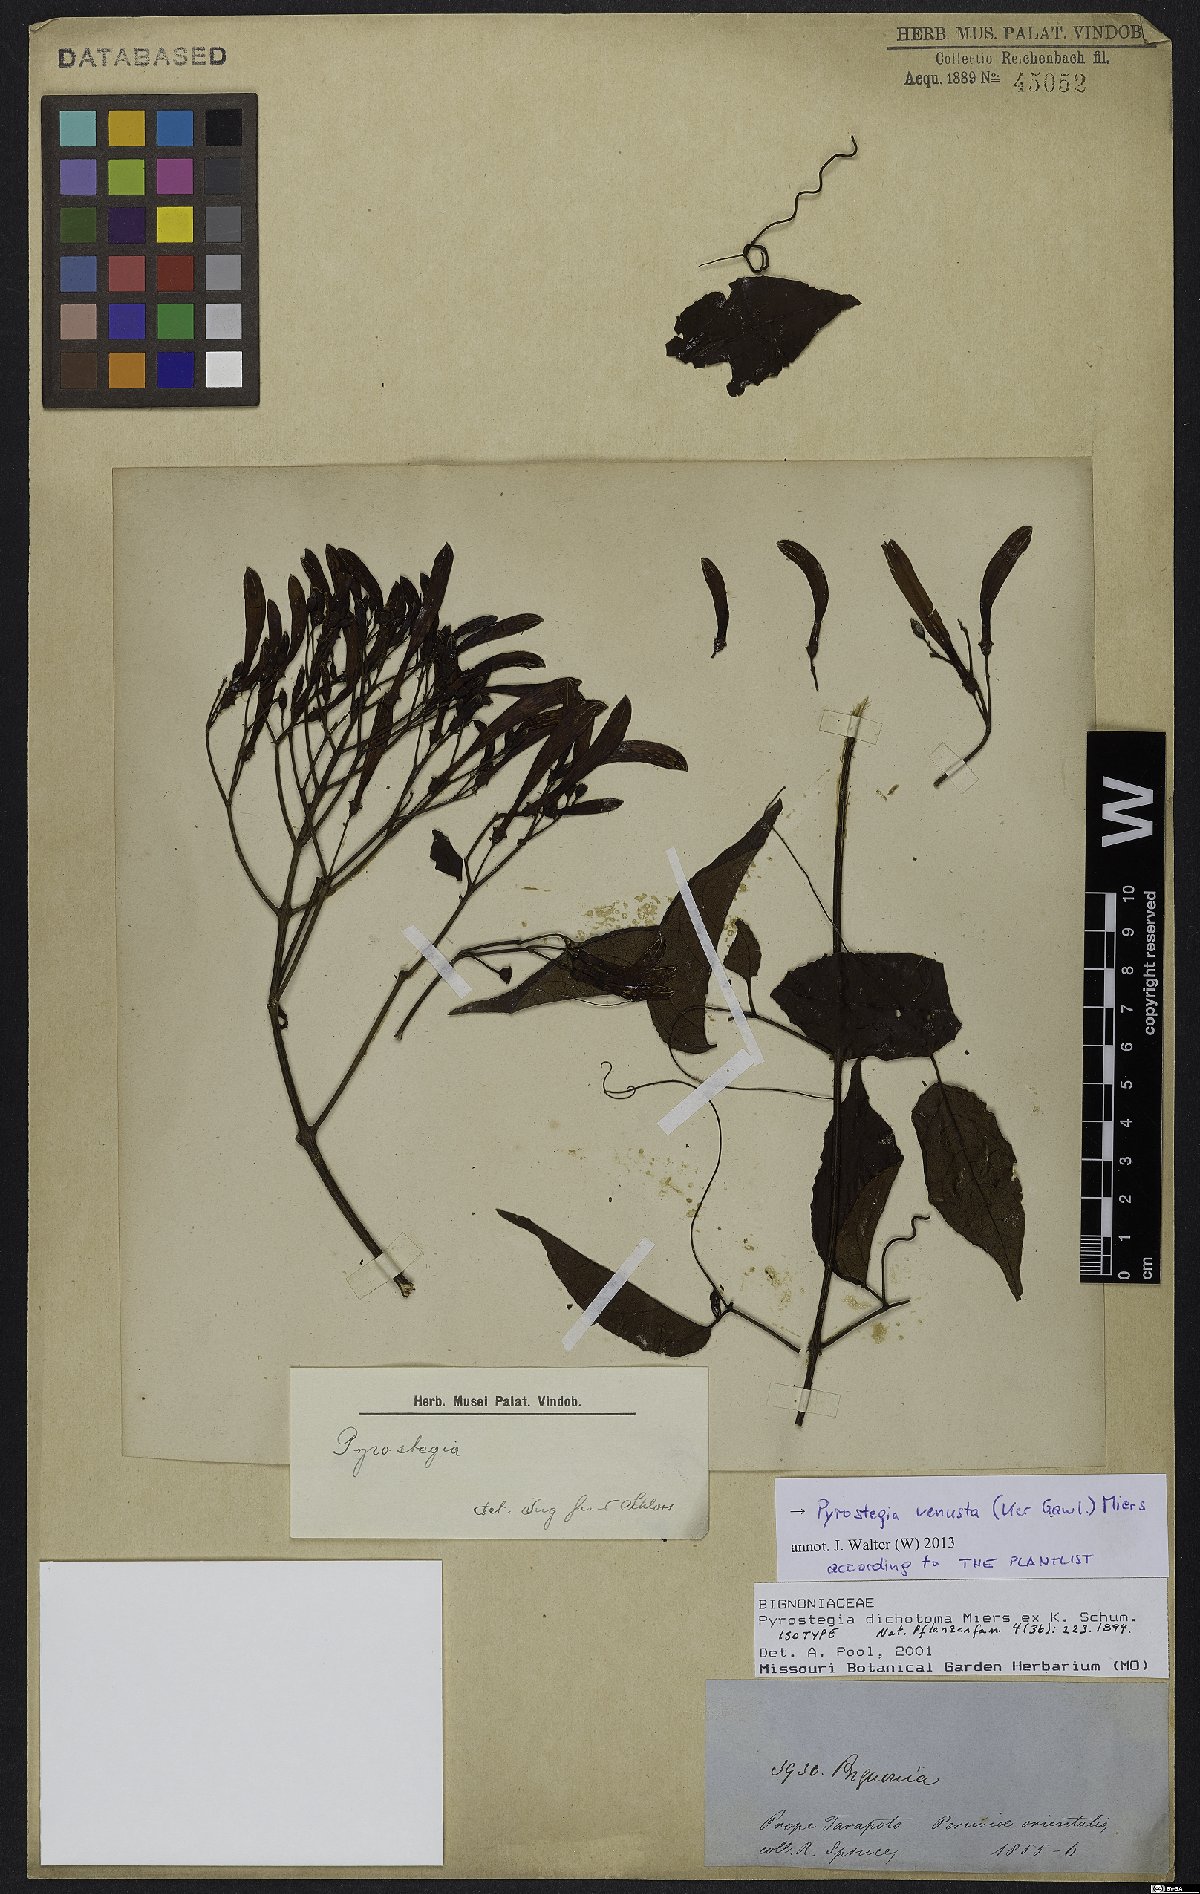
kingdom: Plantae
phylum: Tracheophyta
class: Magnoliopsida
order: Lamiales
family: Bignoniaceae
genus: Pyrostegia
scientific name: Pyrostegia venusta
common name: Flamevine
